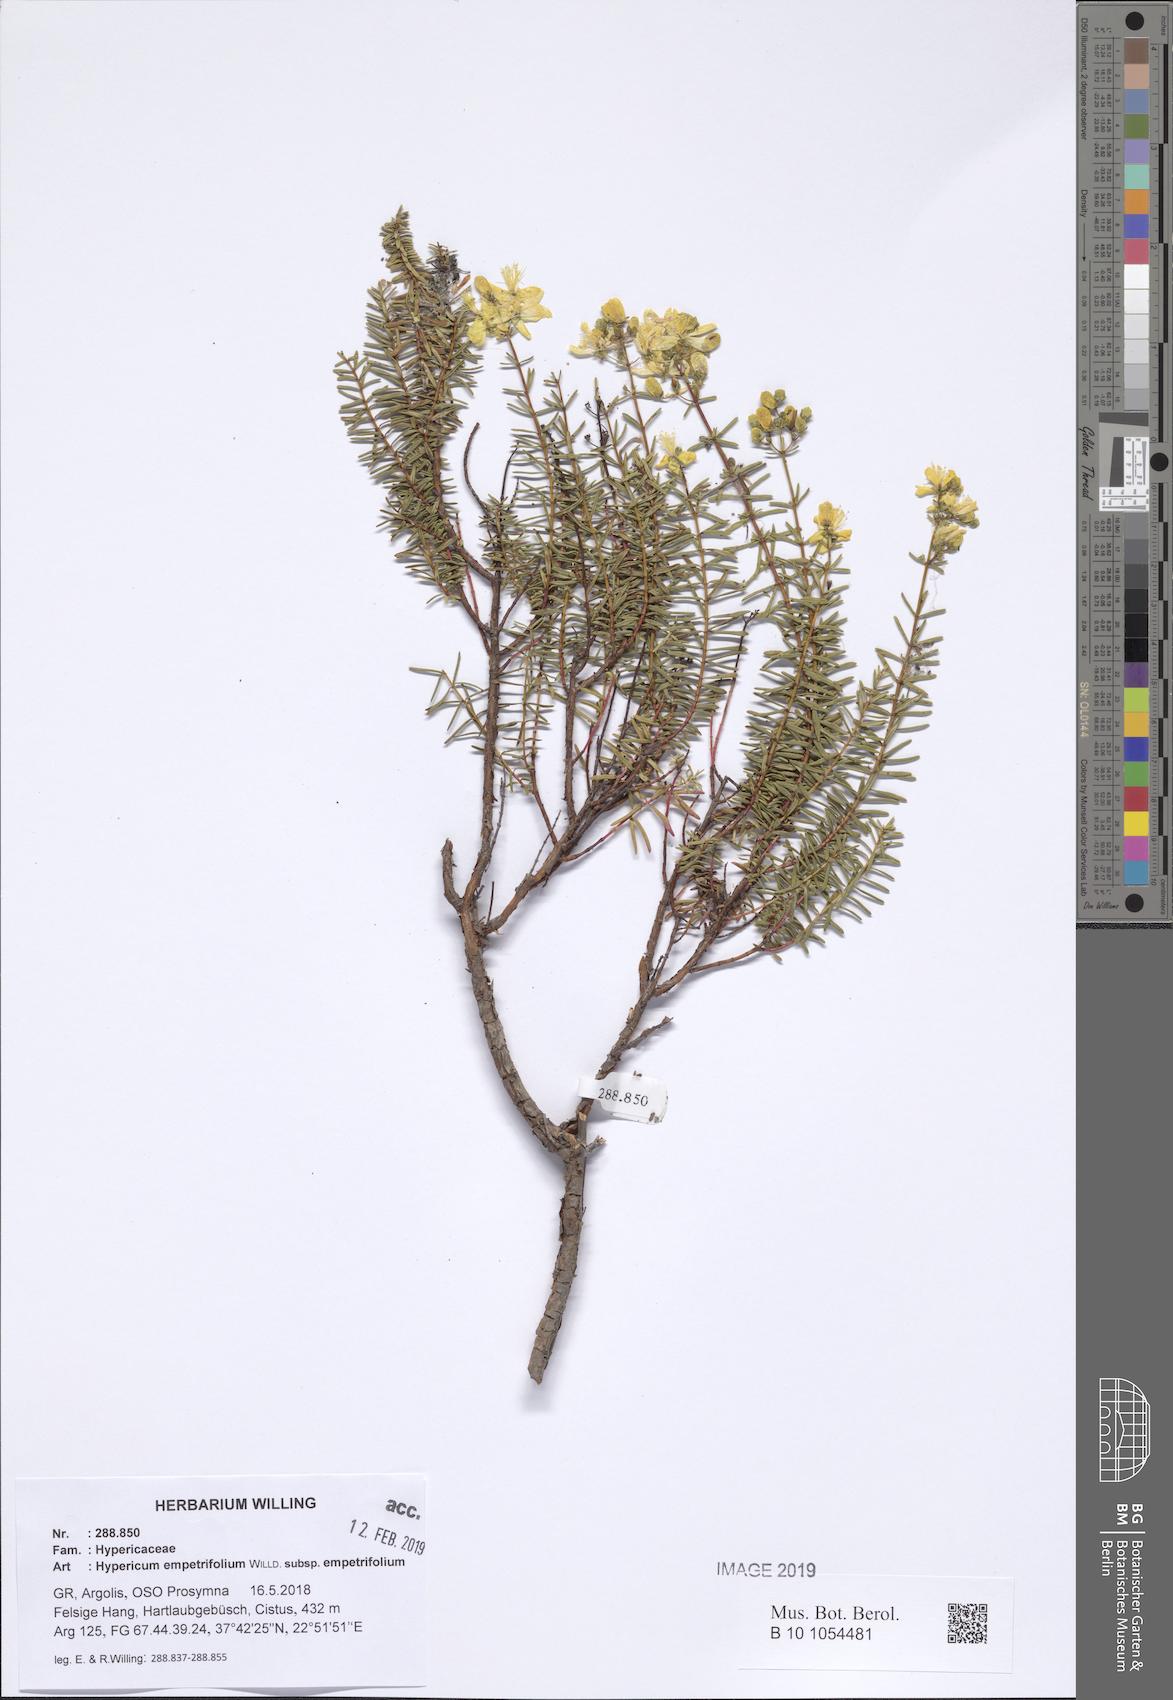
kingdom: Plantae
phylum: Tracheophyta
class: Magnoliopsida
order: Malpighiales
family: Hypericaceae
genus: Hypericum
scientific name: Hypericum empetrifolium
